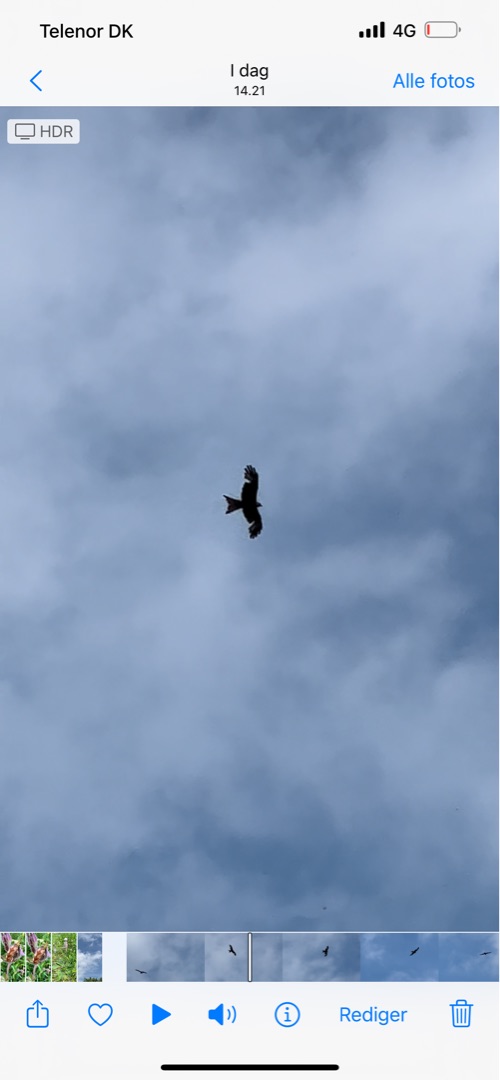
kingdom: Animalia
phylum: Chordata
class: Aves
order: Accipitriformes
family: Accipitridae
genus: Milvus
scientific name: Milvus milvus
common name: Rød glente
